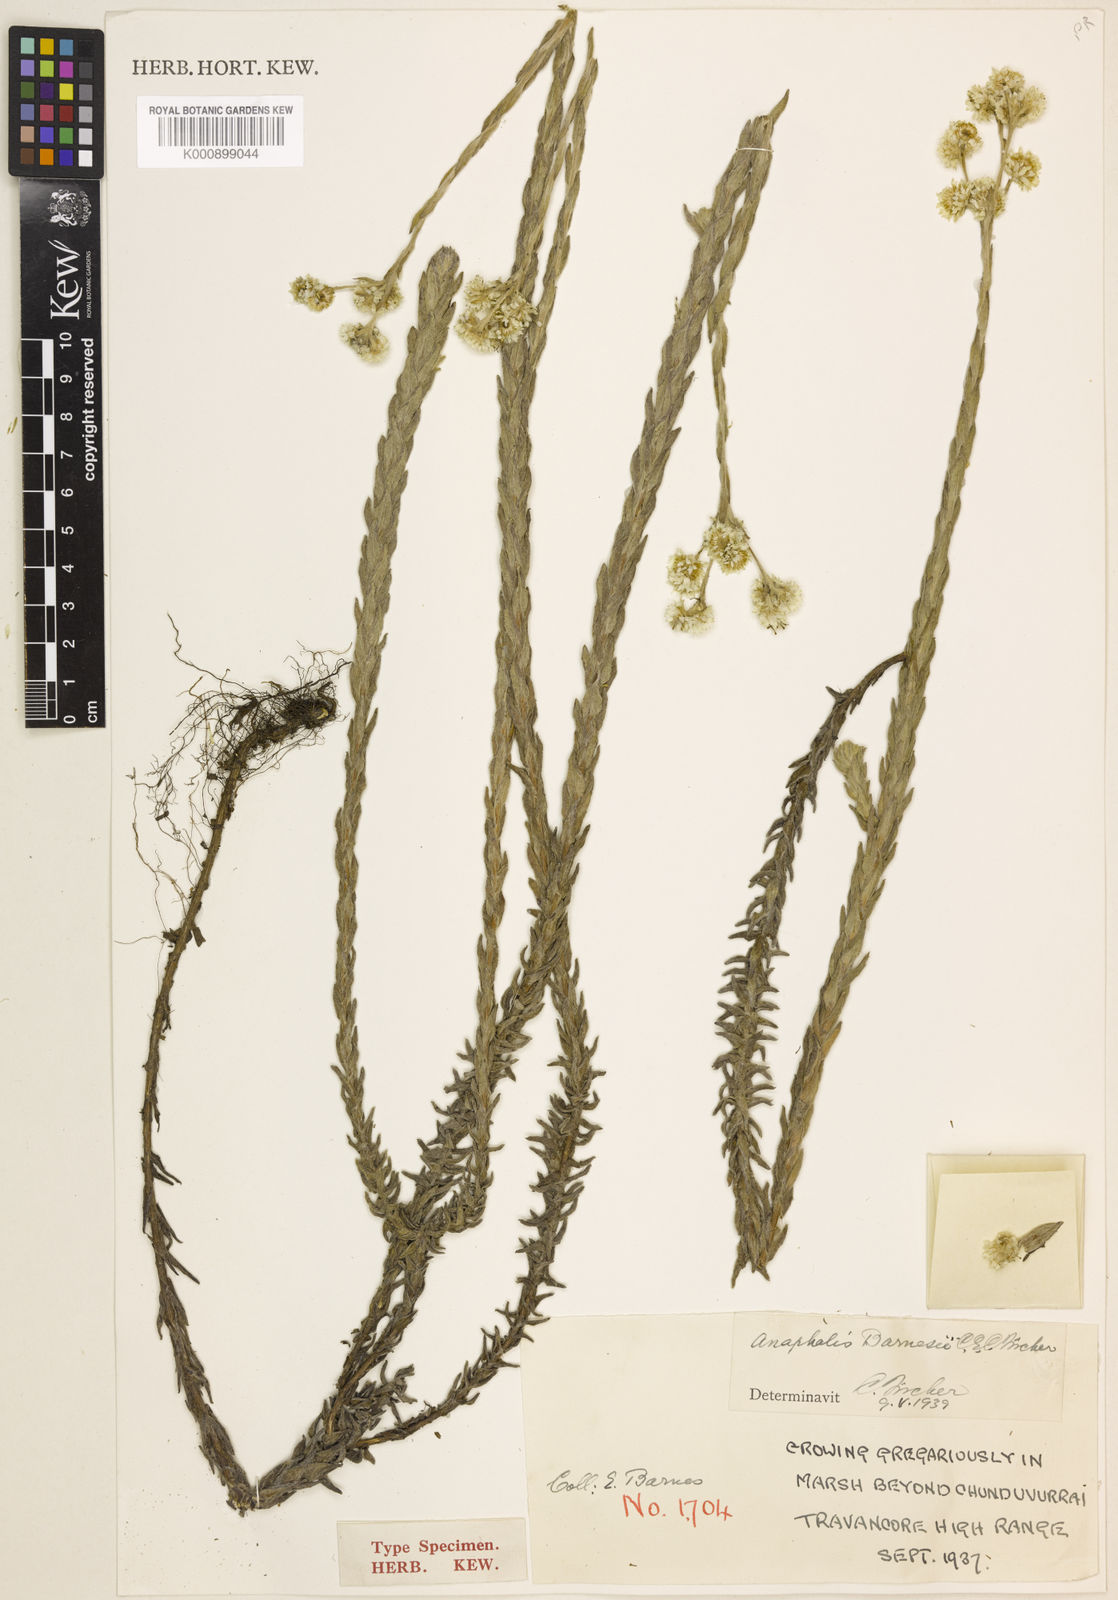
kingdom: Plantae
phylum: Tracheophyta
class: Magnoliopsida
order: Asterales
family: Asteraceae
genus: Anaphalis
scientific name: Anaphalis barnesii
